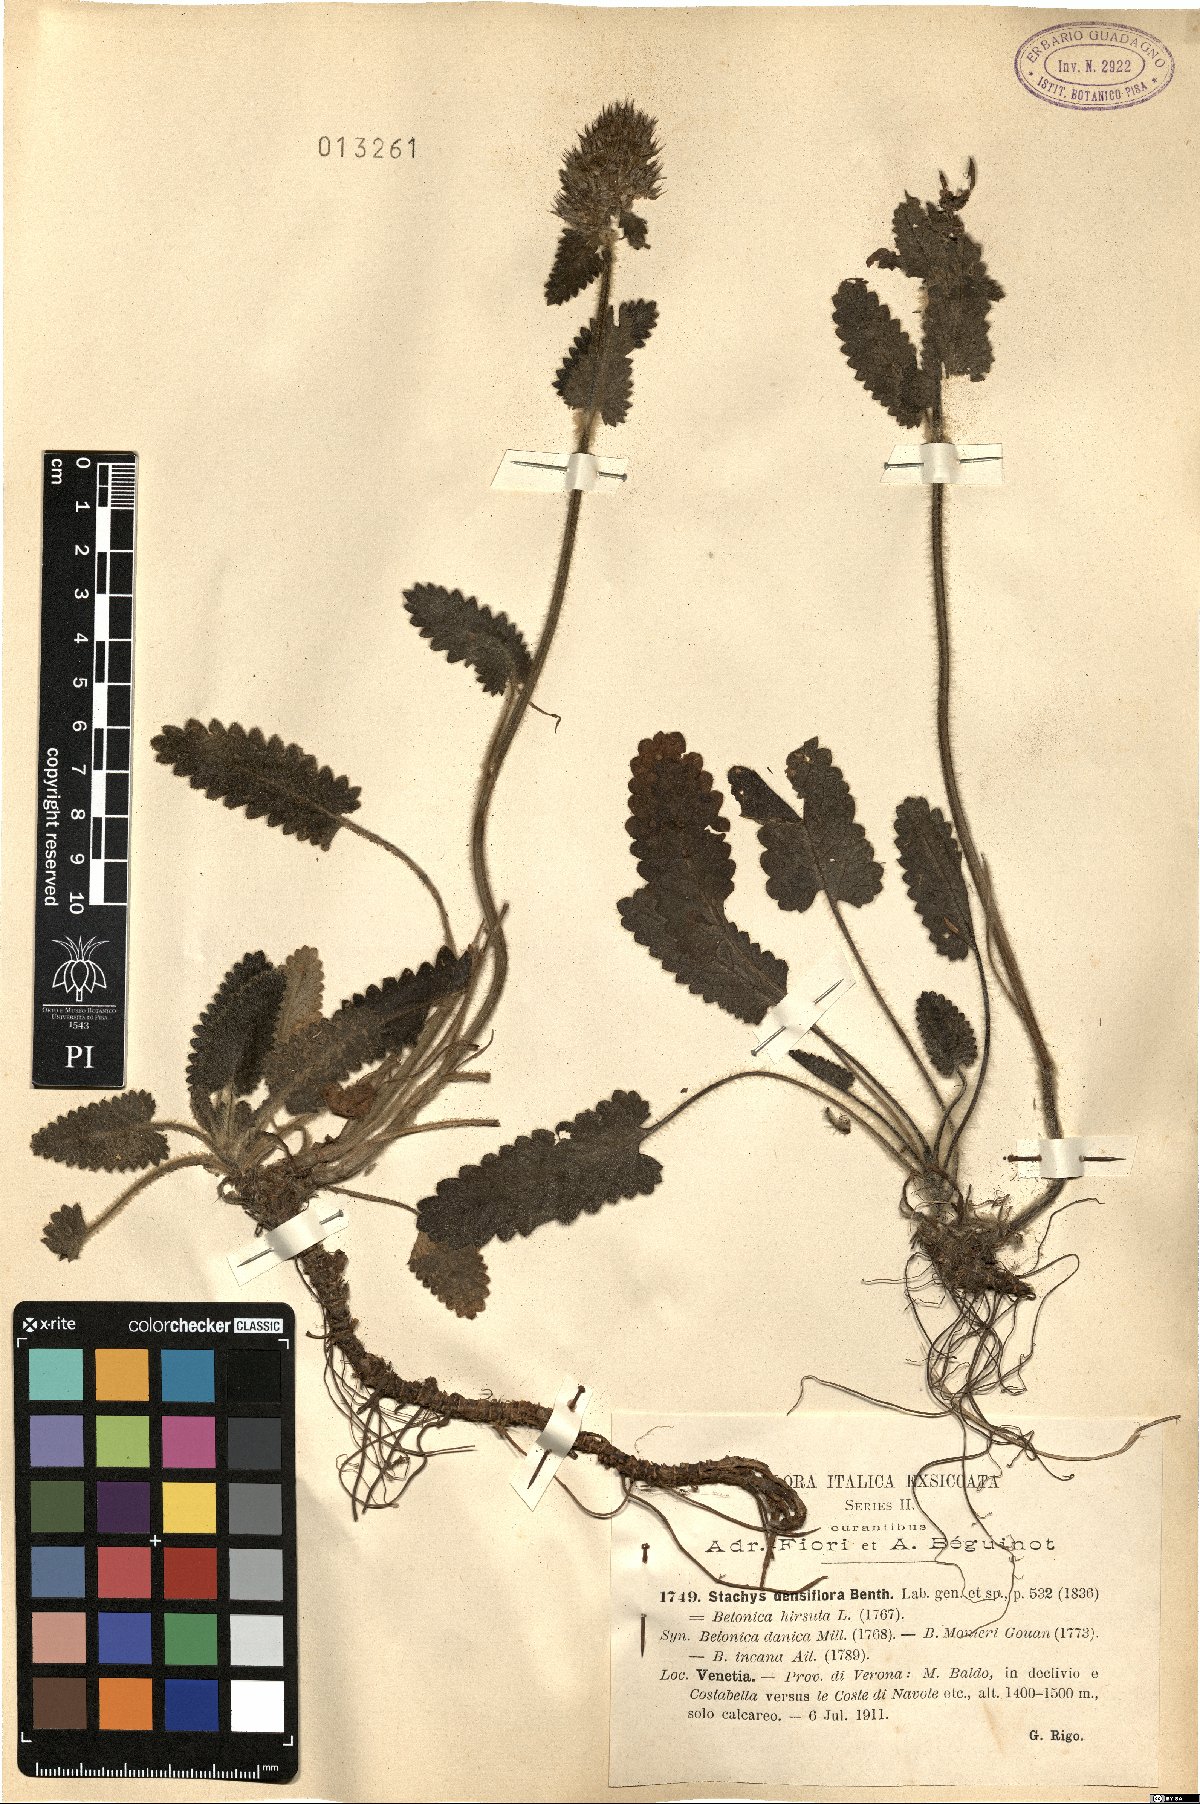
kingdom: Plantae
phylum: Tracheophyta
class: Magnoliopsida
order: Lamiales
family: Lamiaceae
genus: Betonica
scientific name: Betonica officinalis
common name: Bishop's-wort
